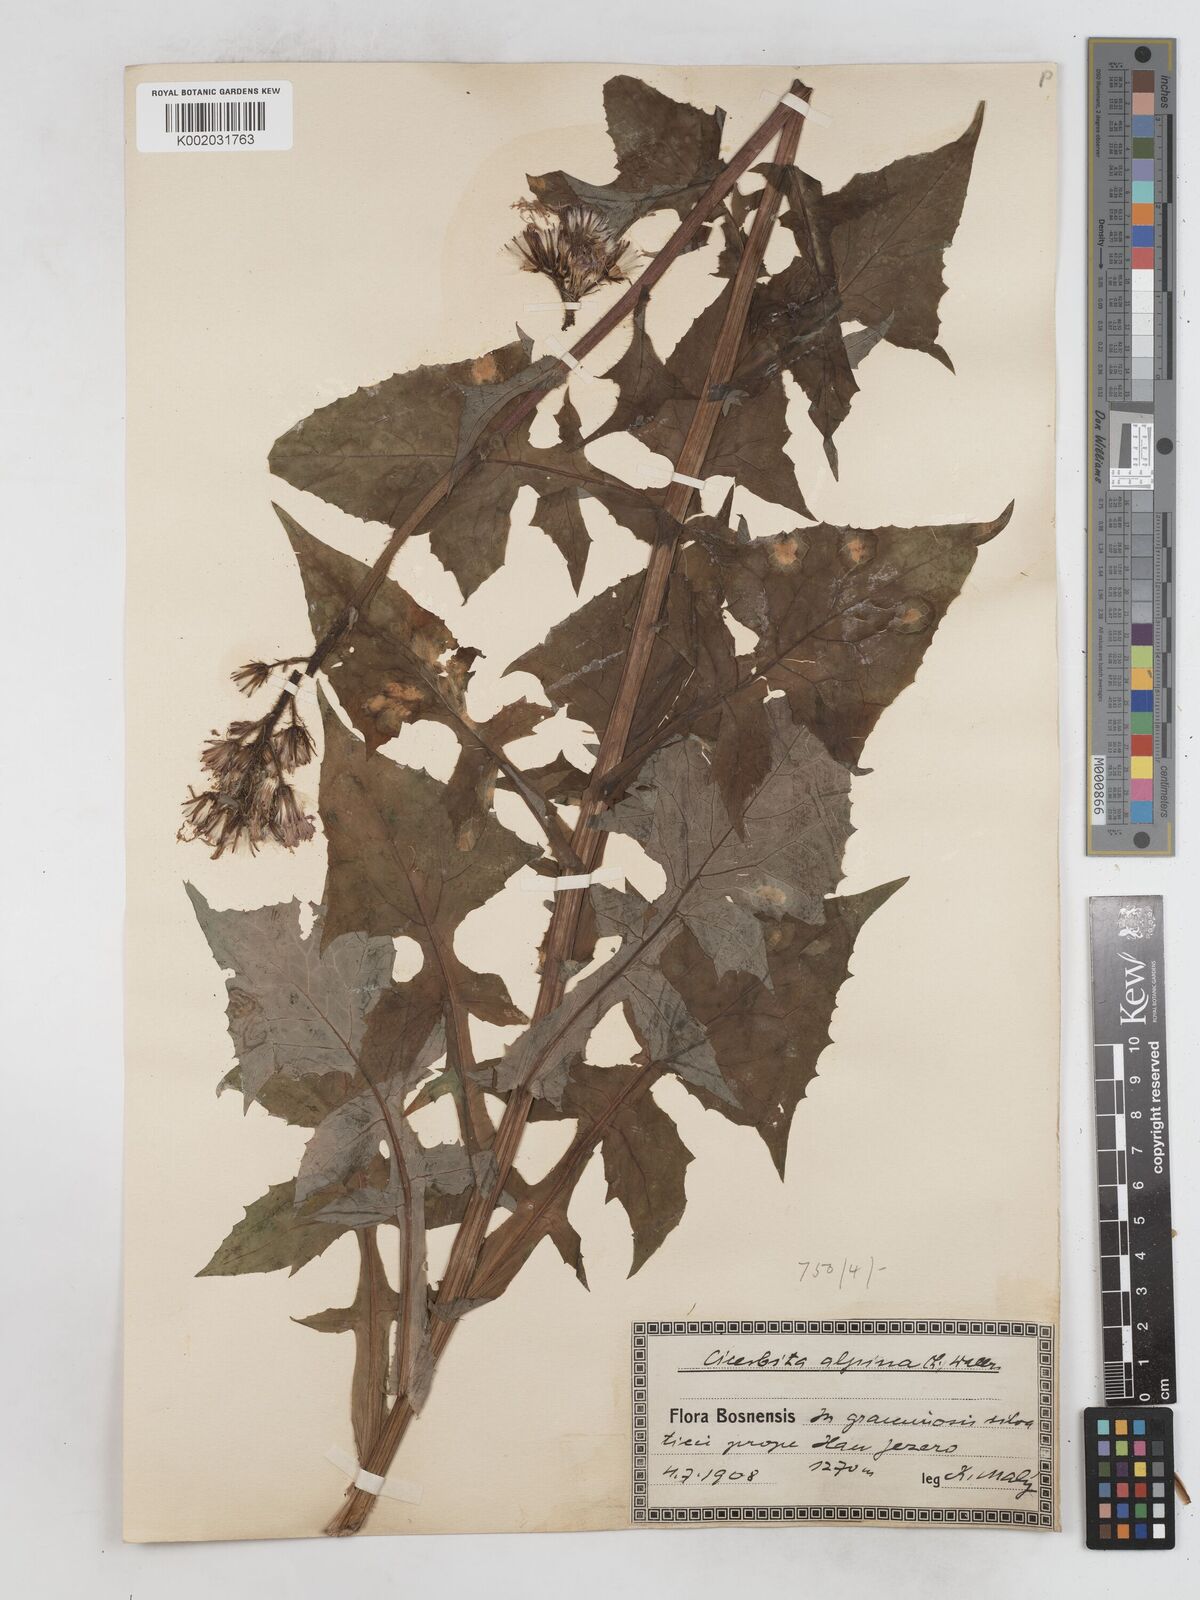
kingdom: Plantae
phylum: Tracheophyta
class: Magnoliopsida
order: Asterales
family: Asteraceae
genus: Cicerbita
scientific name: Cicerbita alpina
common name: Alpine blue-sow-thistle
